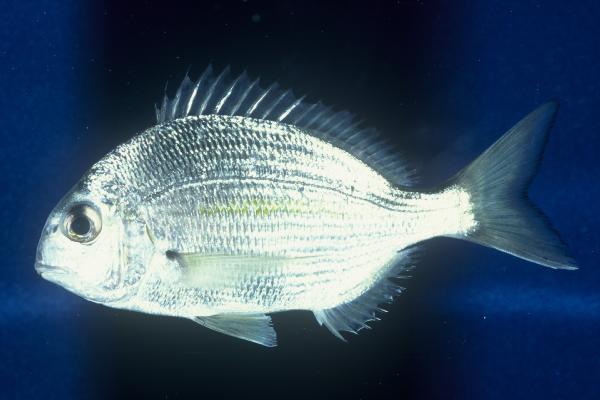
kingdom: Animalia
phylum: Chordata
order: Perciformes
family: Sparidae
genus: Rhabdosargus
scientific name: Rhabdosargus holubi
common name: Cape stumpnose
